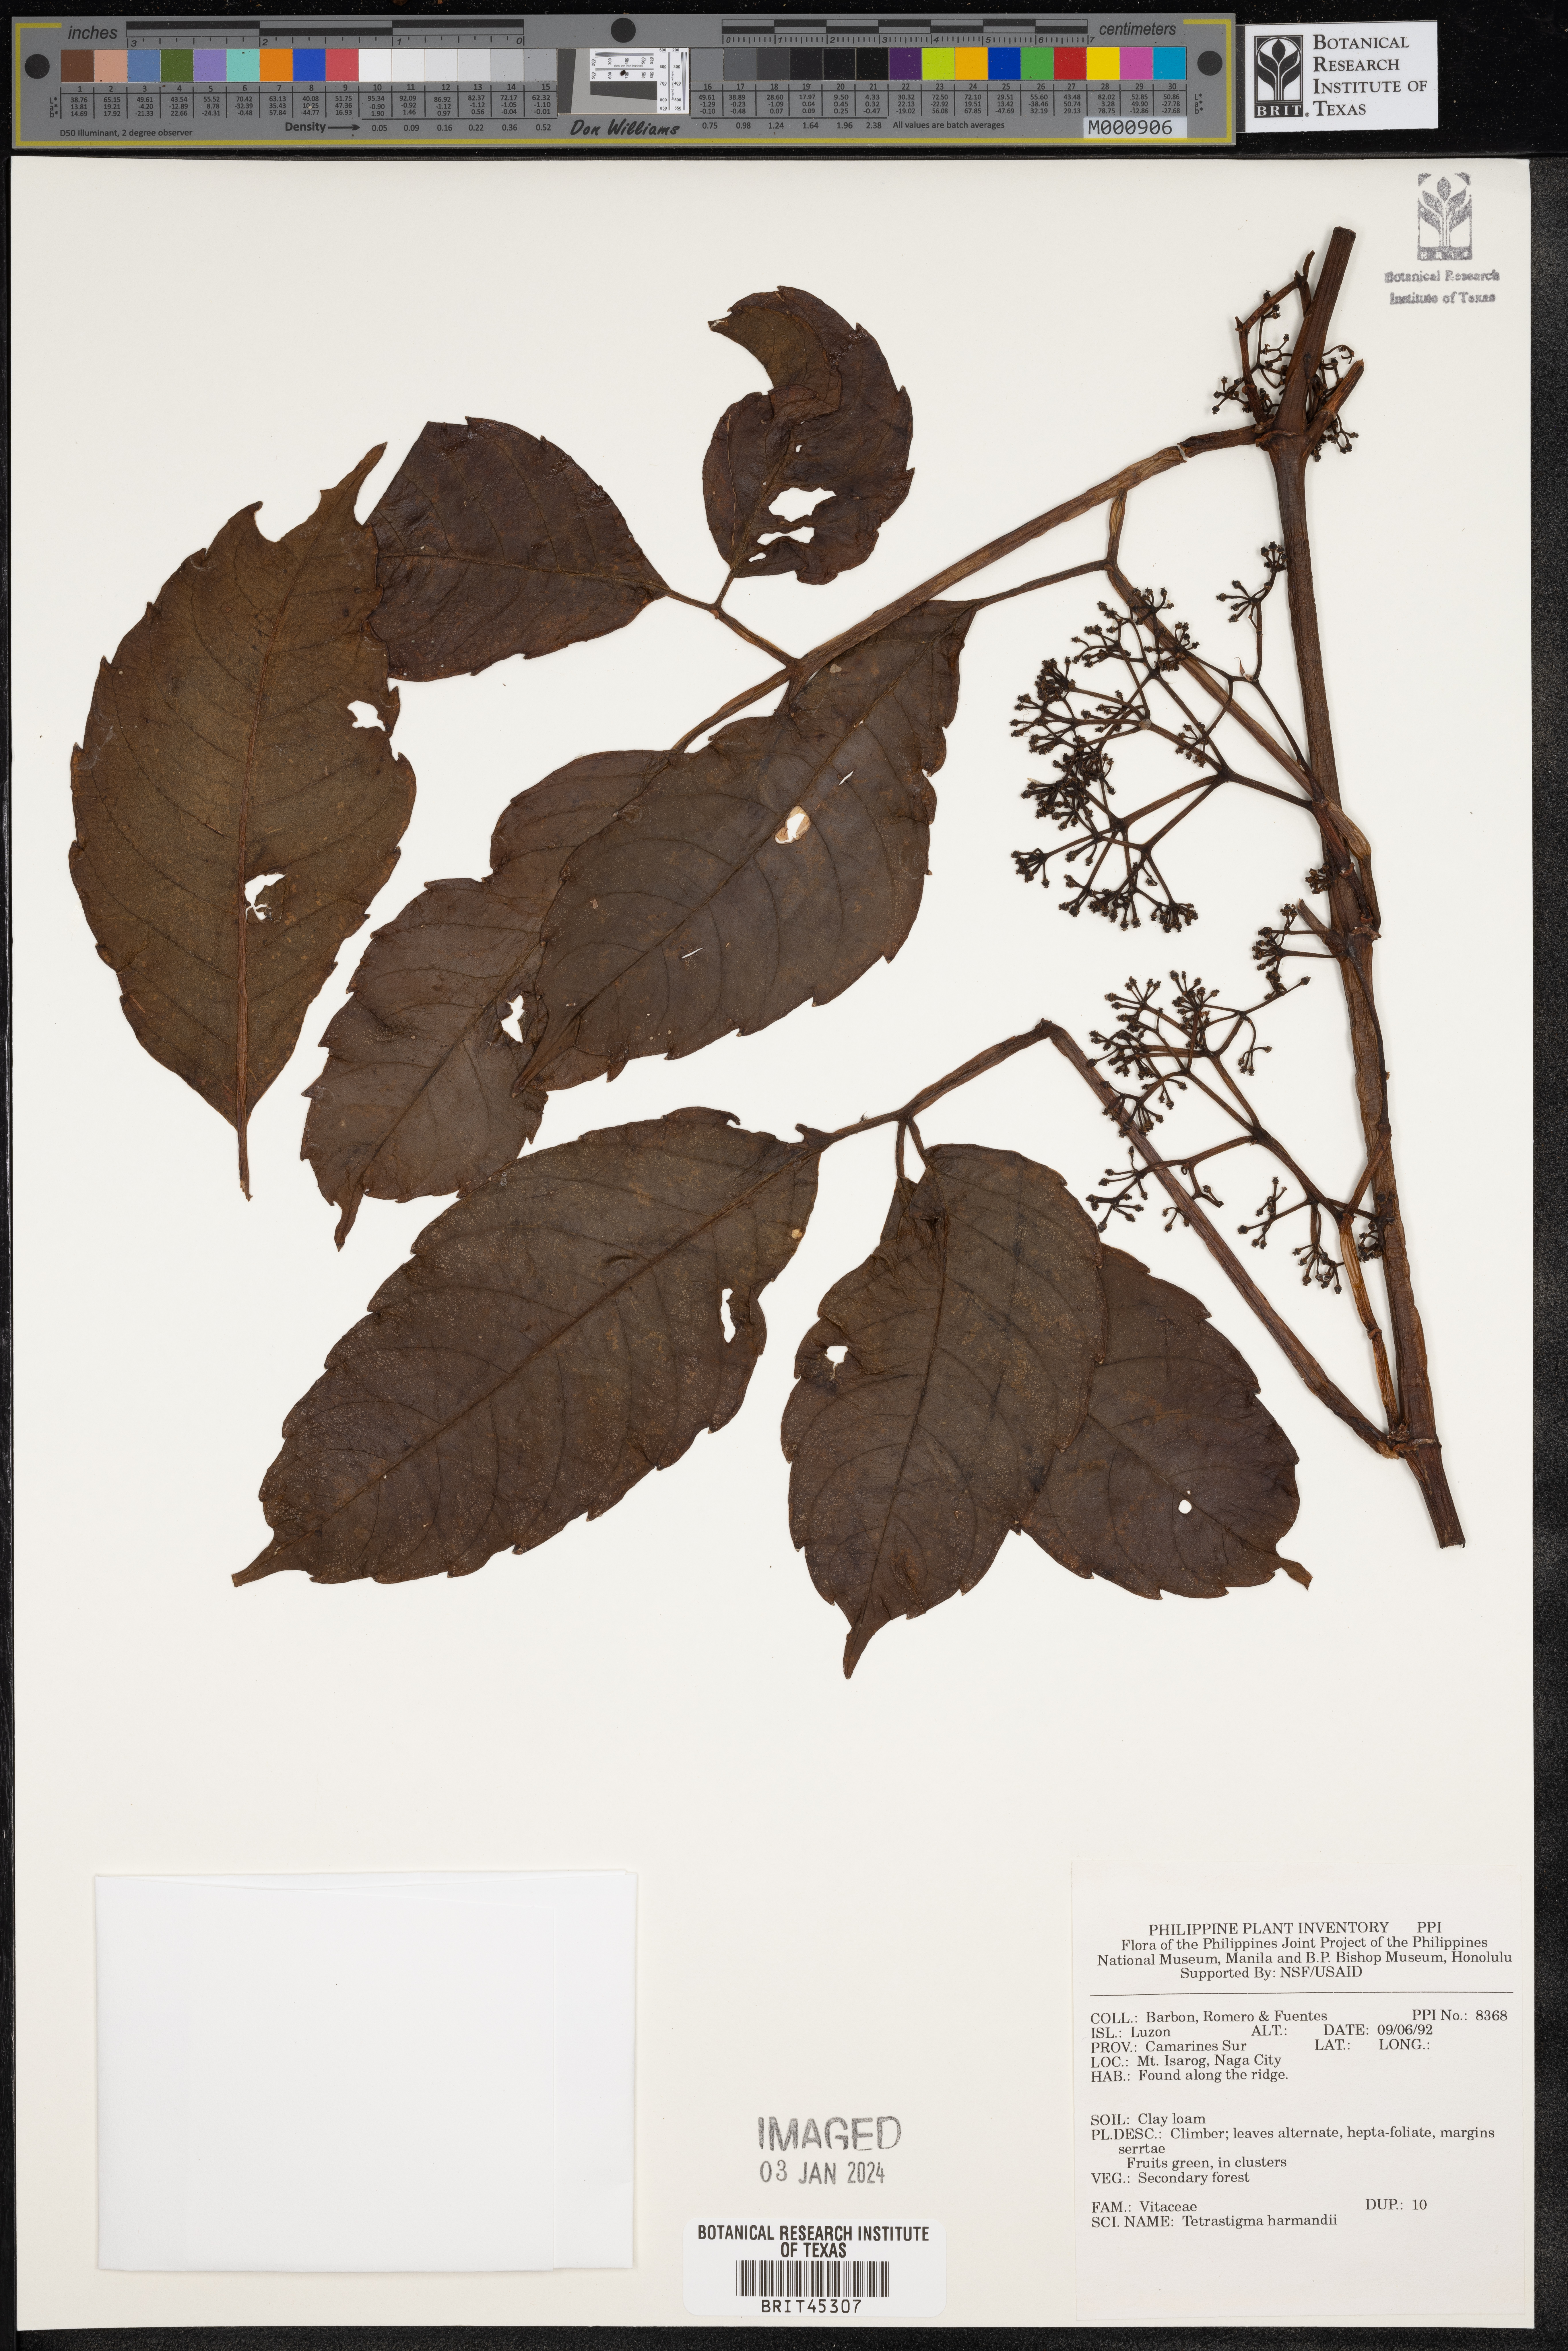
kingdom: Plantae
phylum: Tracheophyta
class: Magnoliopsida
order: Vitales
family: Vitaceae
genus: Tetrastigma
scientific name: Tetrastigma harmandii
